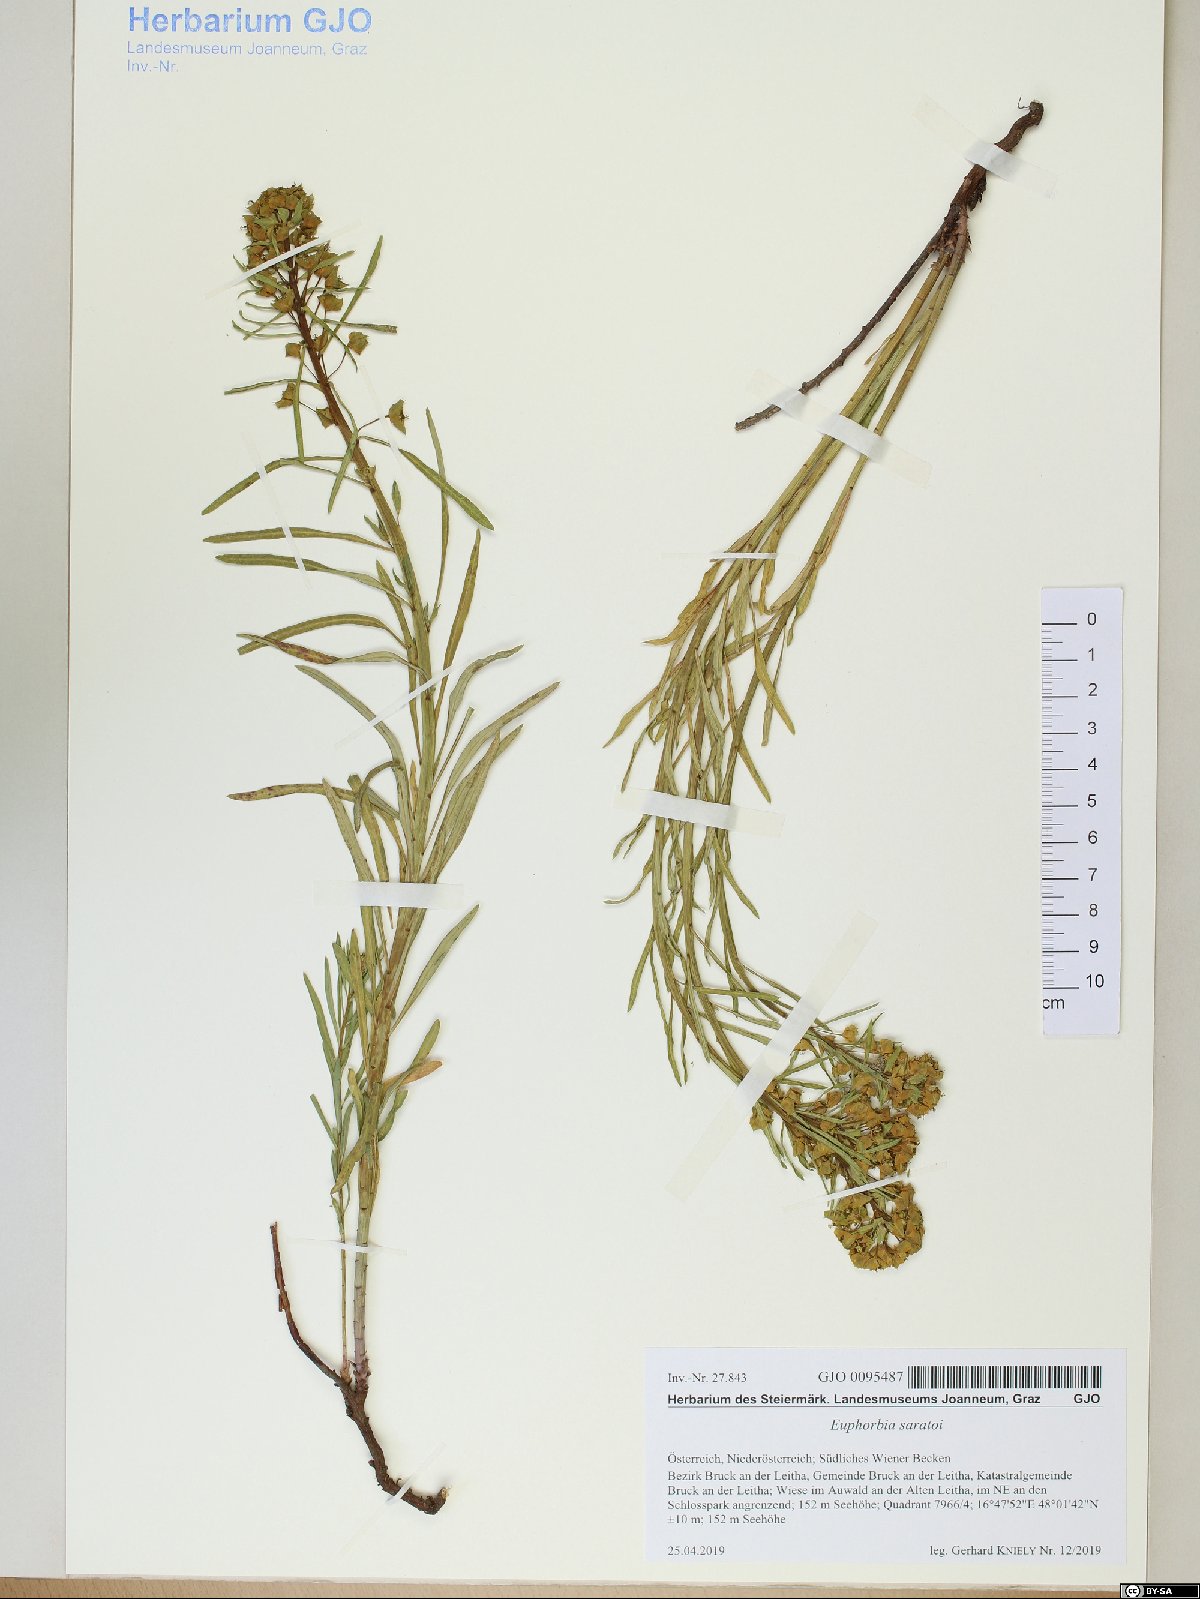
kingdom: Plantae
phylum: Tracheophyta
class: Magnoliopsida
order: Malpighiales
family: Euphorbiaceae
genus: Euphorbia
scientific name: Euphorbia saratoi
